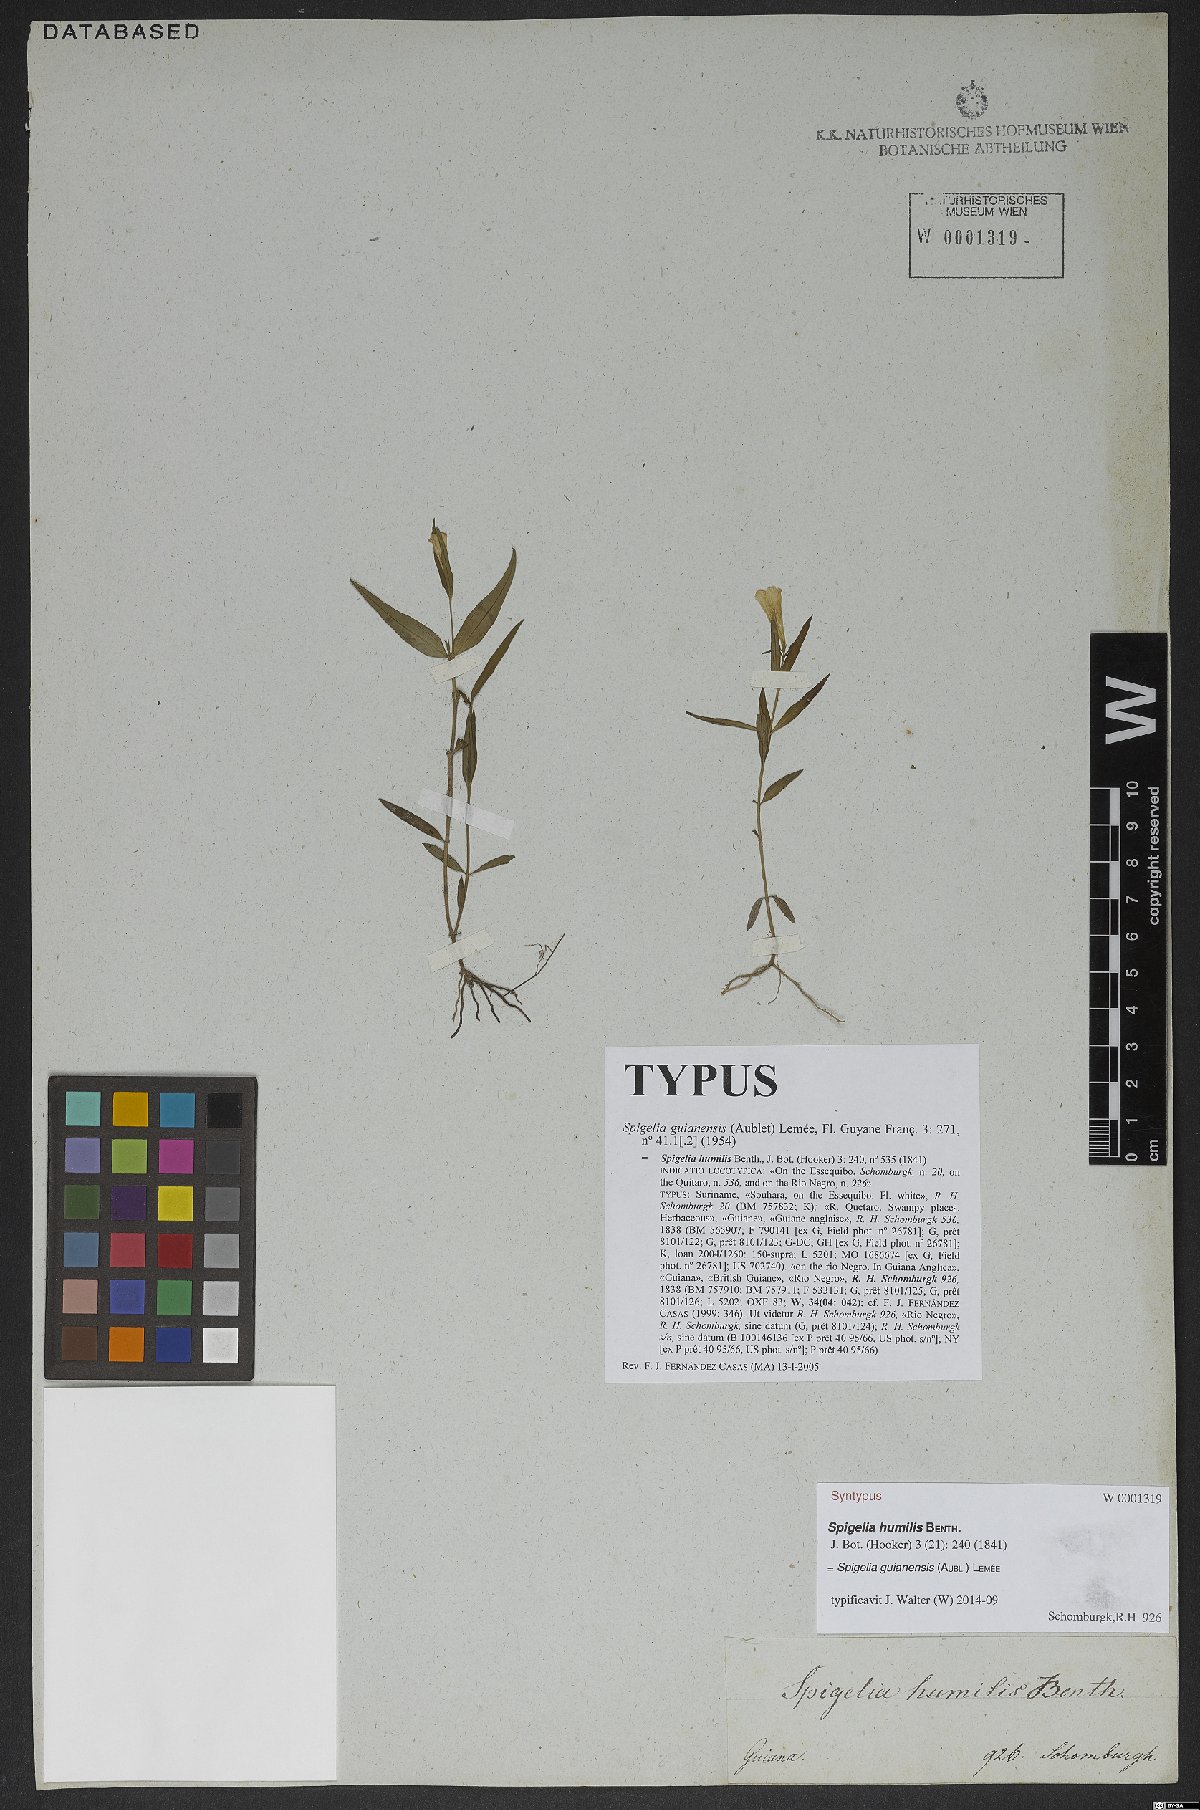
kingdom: Plantae
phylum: Tracheophyta
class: Magnoliopsida
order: Gentianales
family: Loganiaceae
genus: Spigelia
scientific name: Spigelia guianensis
